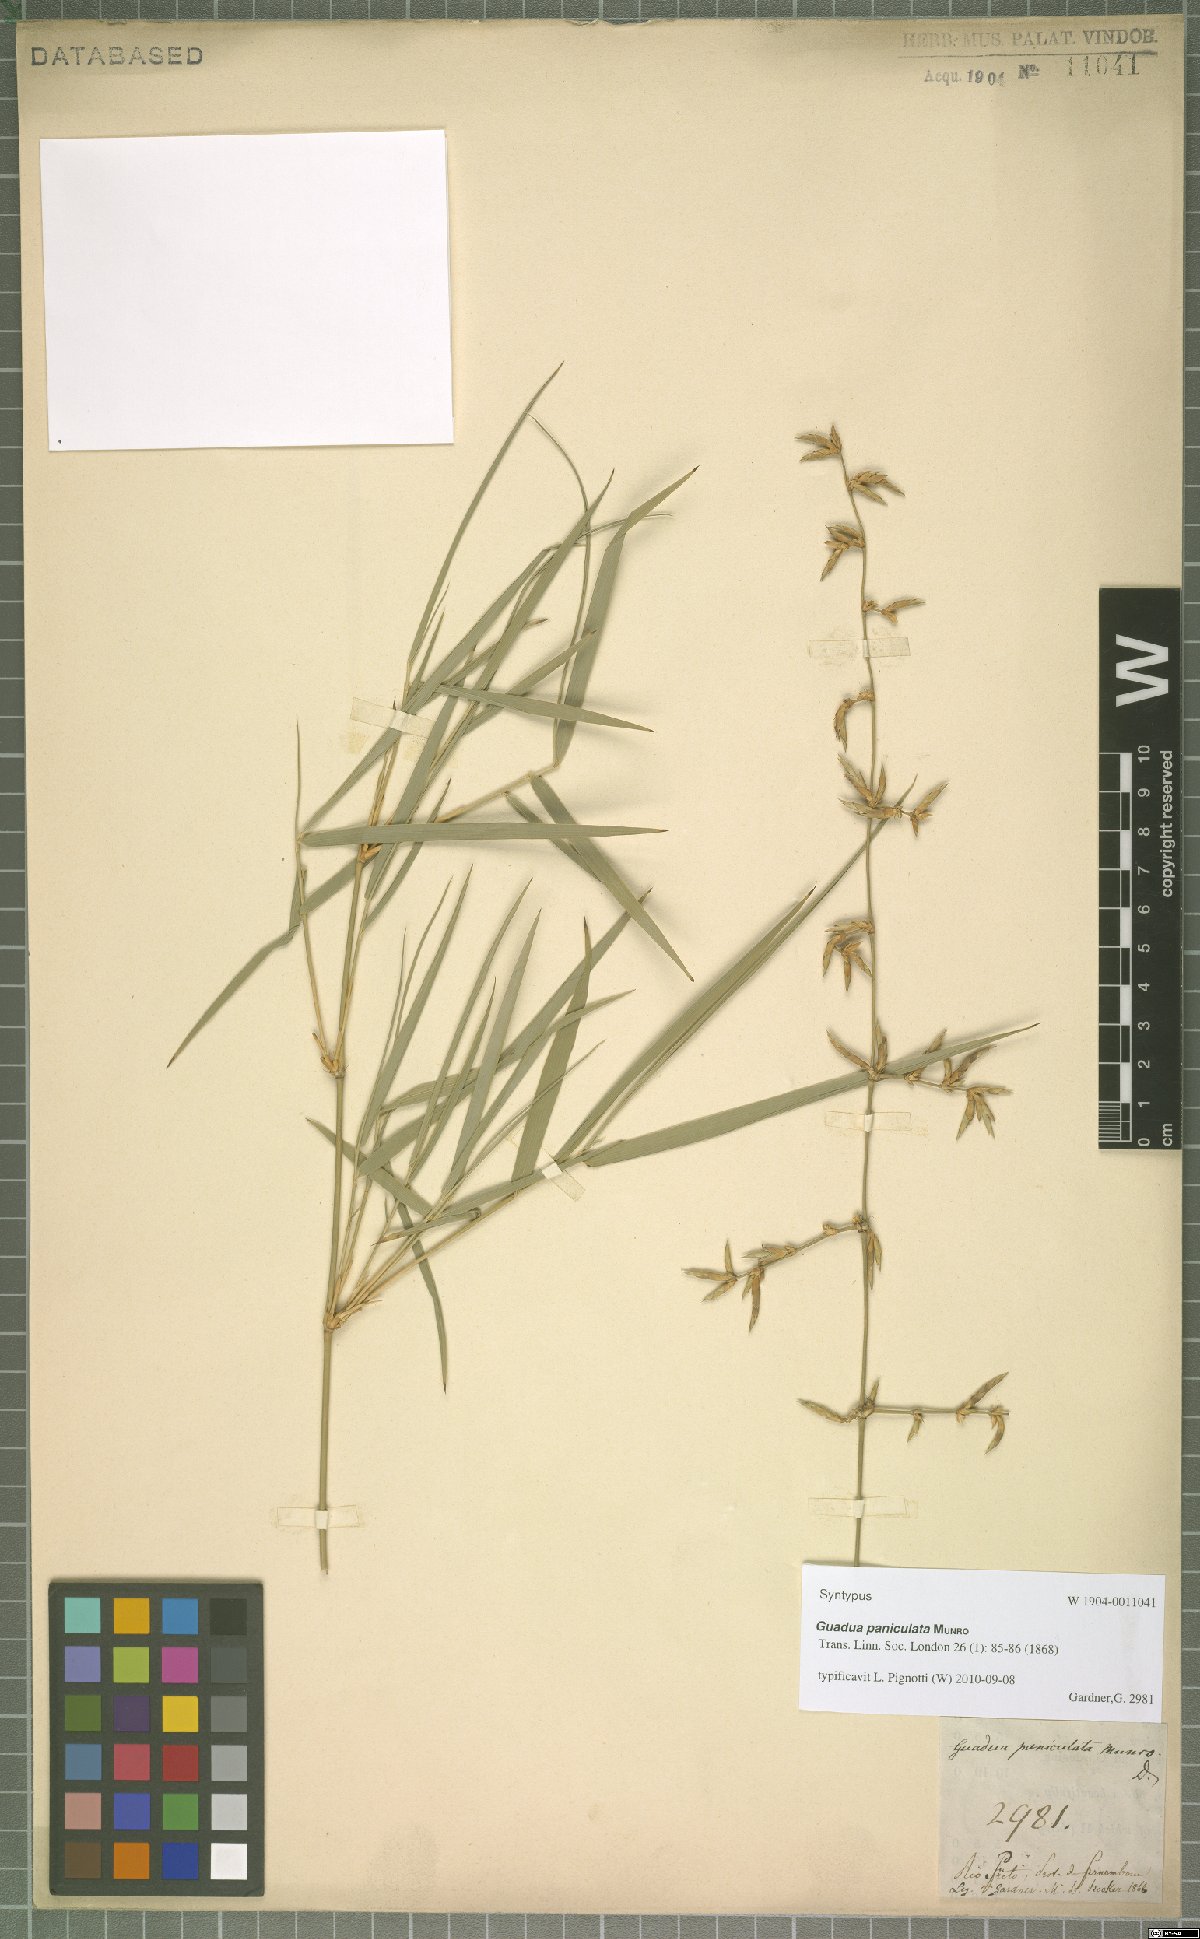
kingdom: Plantae
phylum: Tracheophyta
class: Liliopsida
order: Poales
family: Poaceae
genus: Guadua
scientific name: Guadua paniculata
